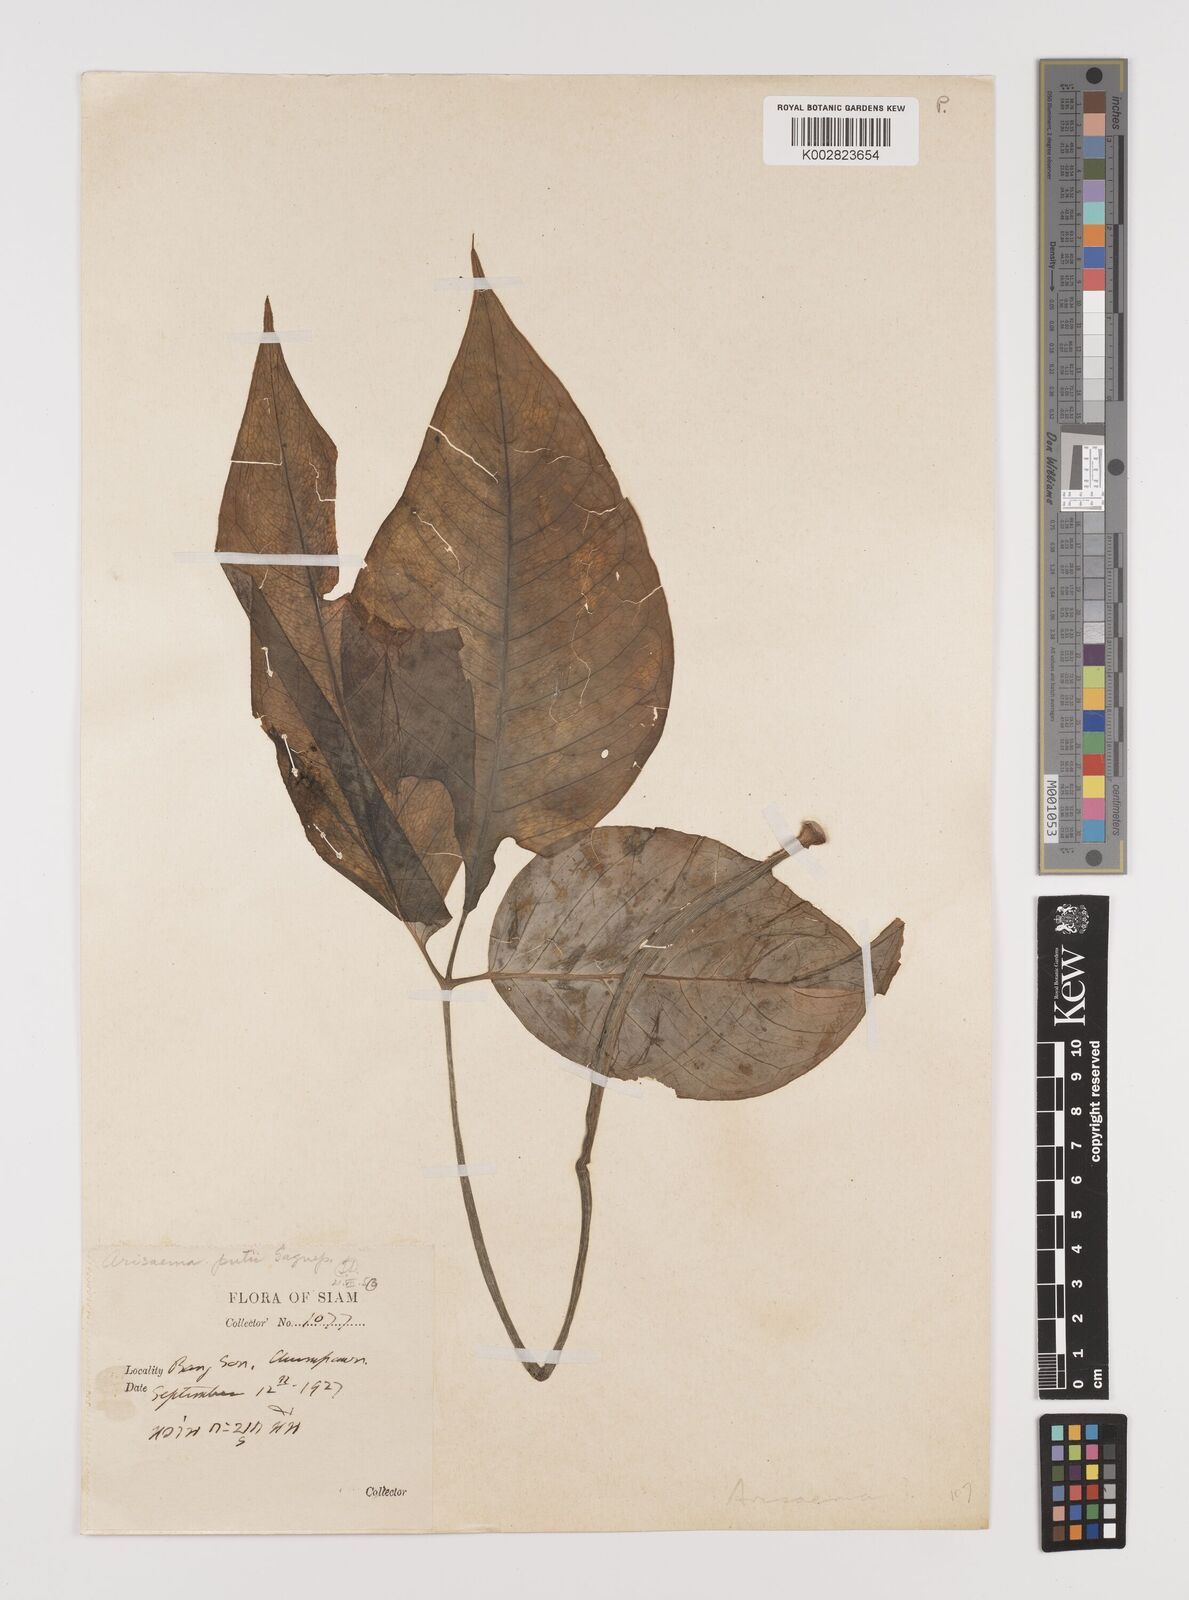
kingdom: Plantae
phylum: Tracheophyta
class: Liliopsida
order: Alismatales
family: Araceae
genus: Arisaema
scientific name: Arisaema
